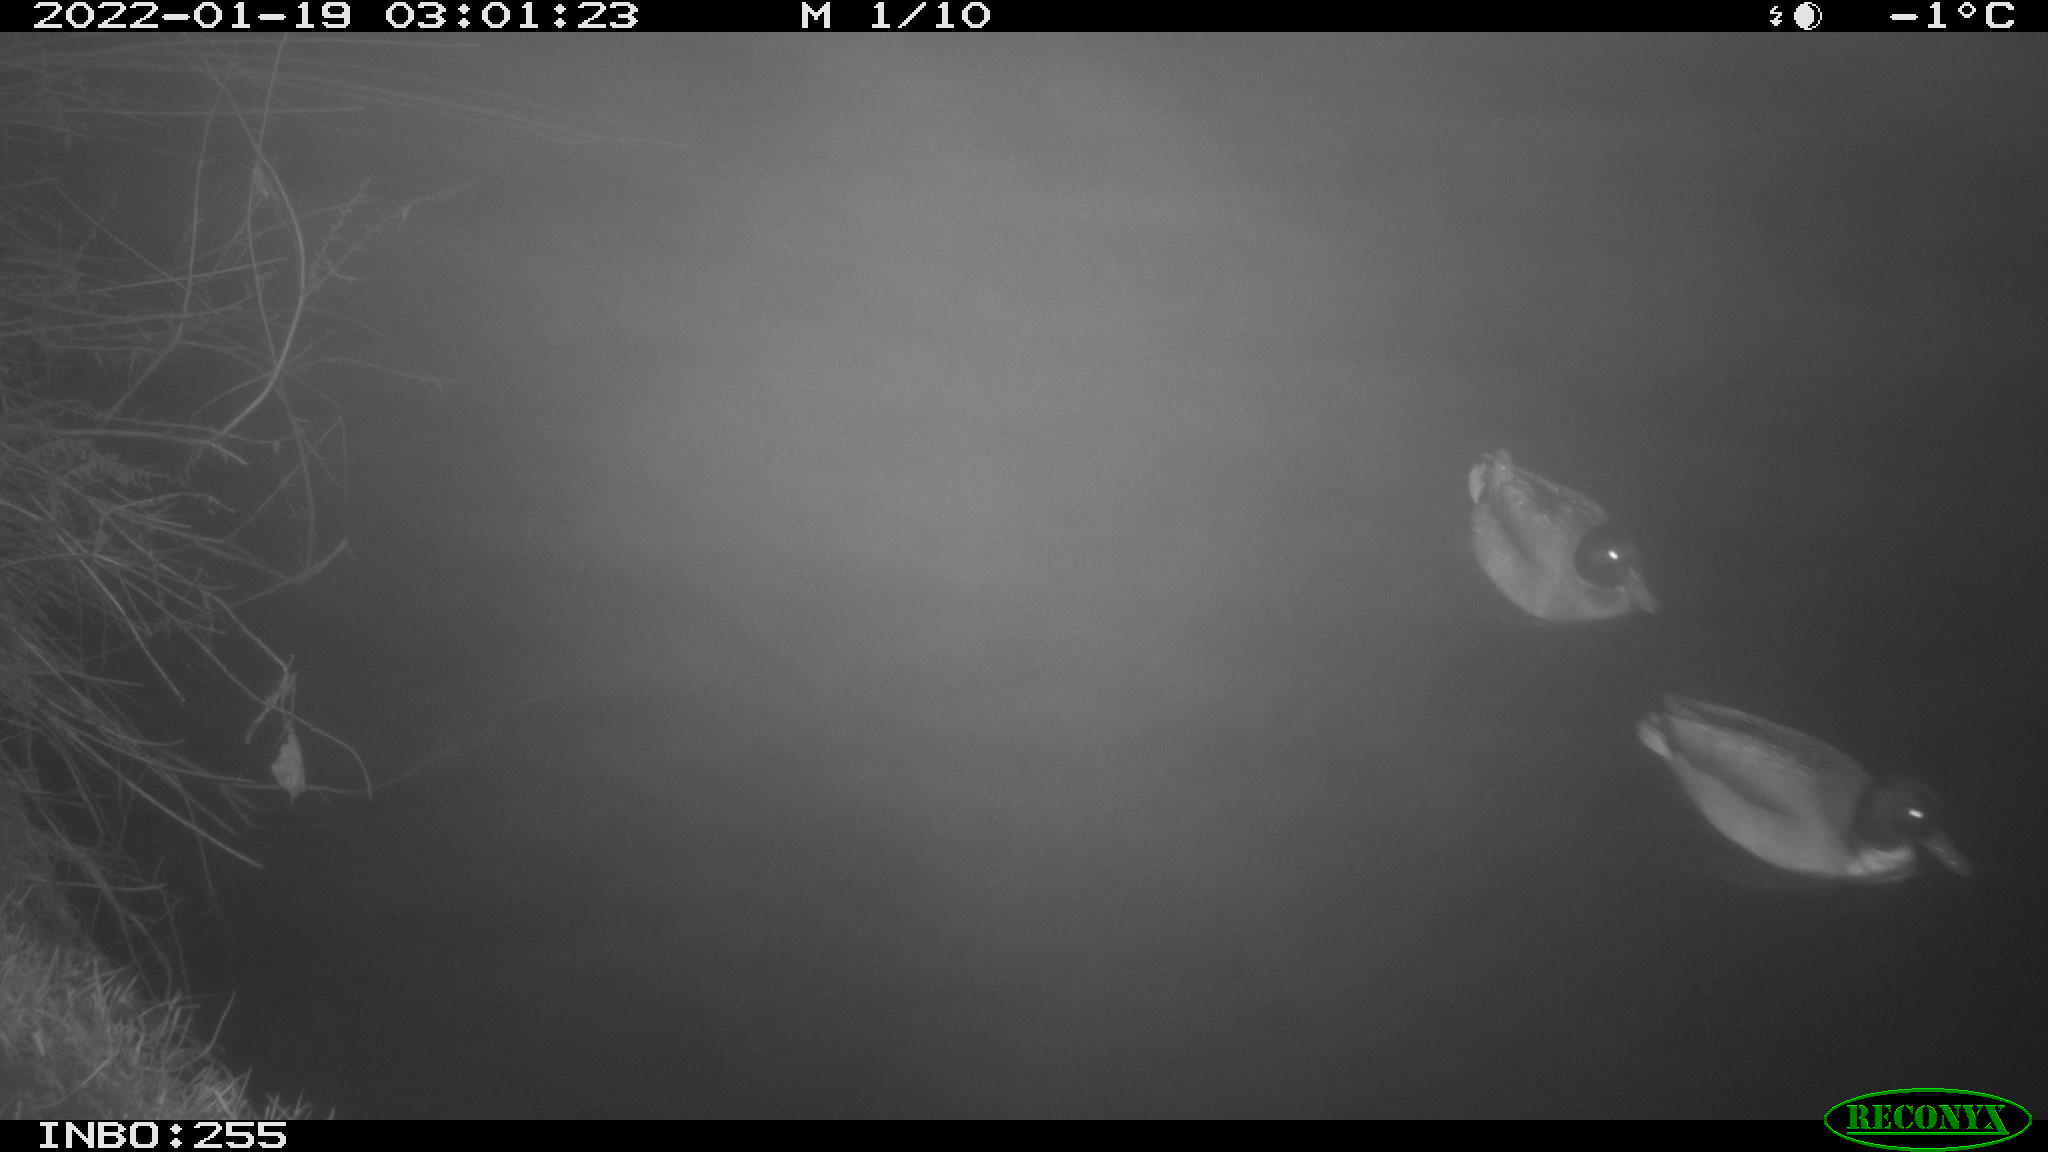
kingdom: Animalia
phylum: Chordata
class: Aves
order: Anseriformes
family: Anatidae
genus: Anas
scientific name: Anas platyrhynchos
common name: Mallard
